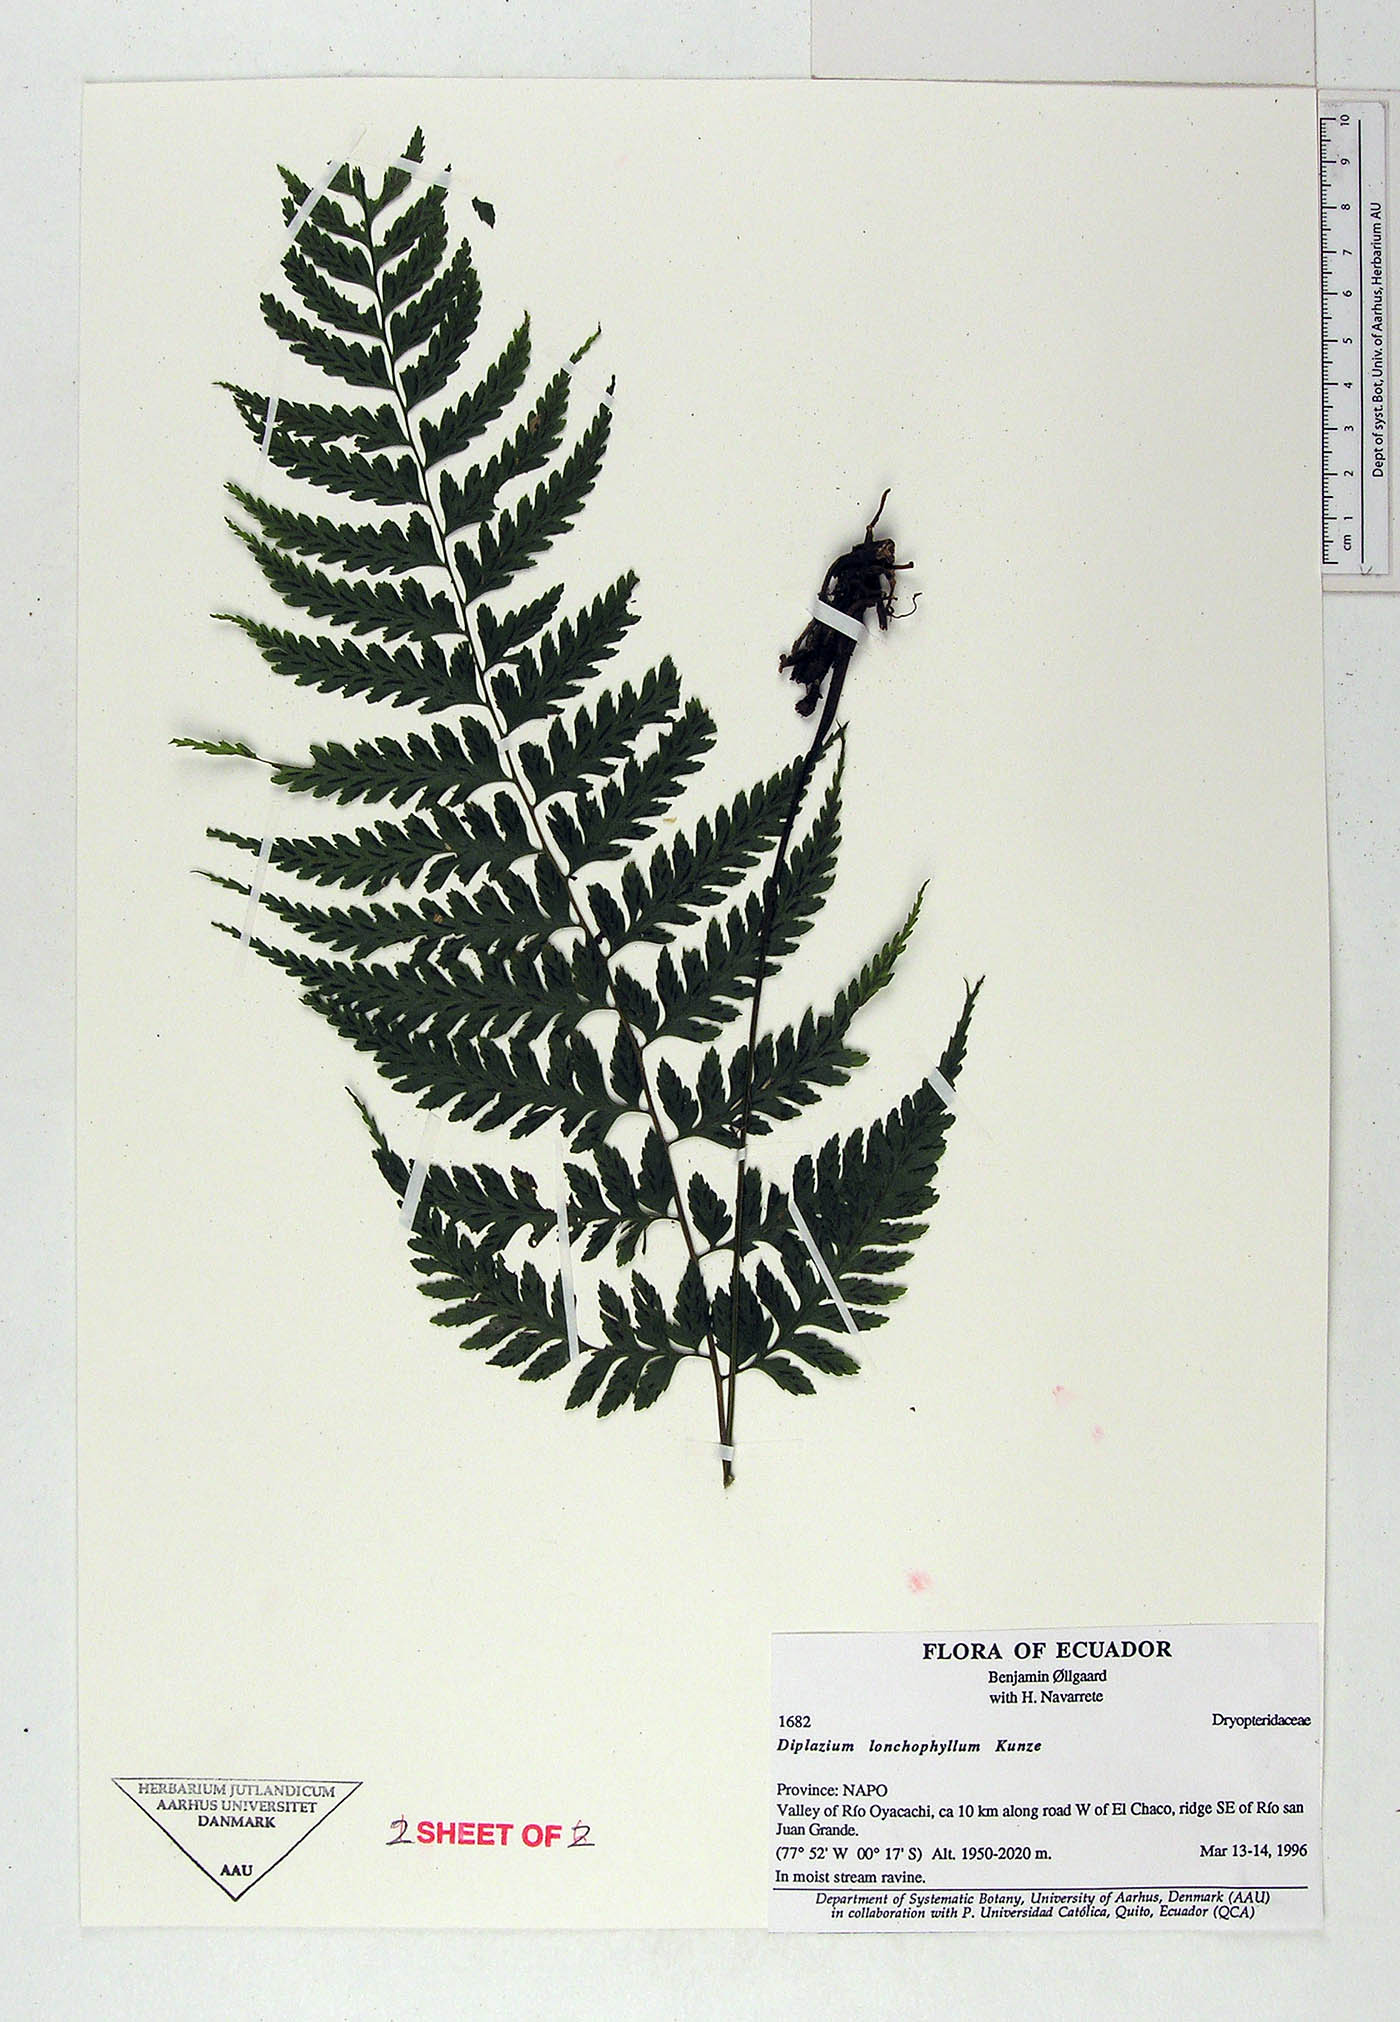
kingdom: Plantae
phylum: Tracheophyta
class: Polypodiopsida
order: Polypodiales
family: Athyriaceae
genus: Diplazium
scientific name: Diplazium lonchophyllum
